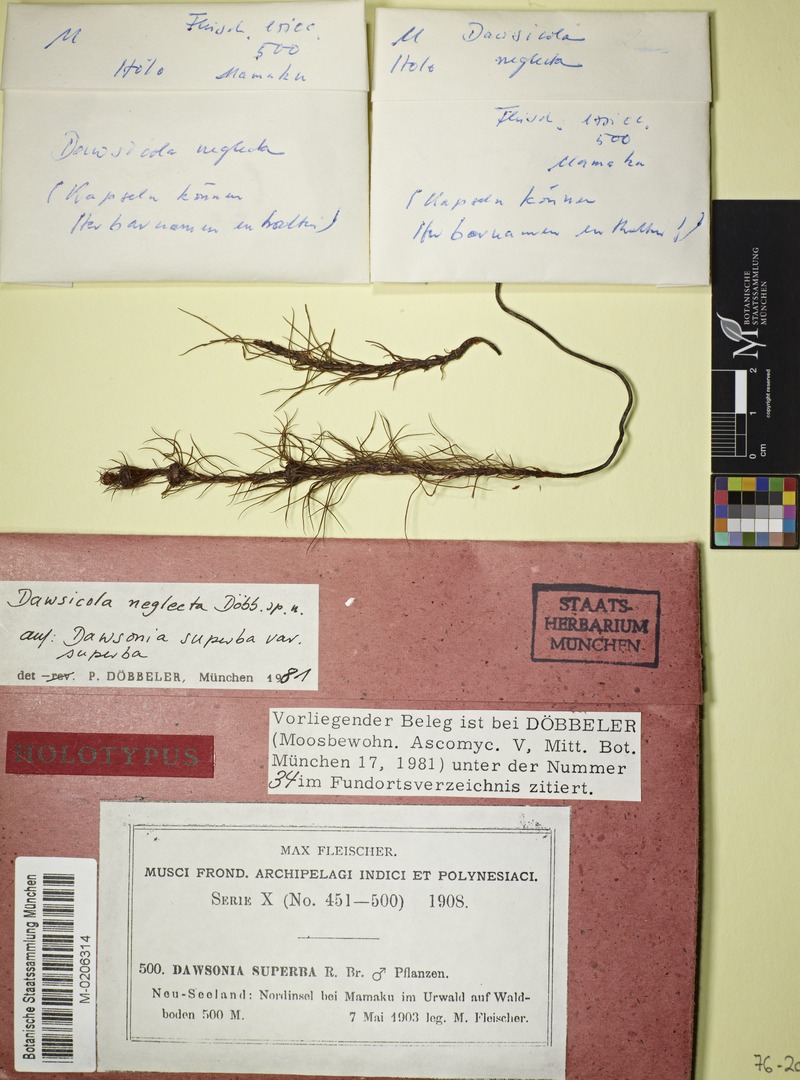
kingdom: Fungi
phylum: Ascomycota
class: Leotiomycetes
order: Helotiales
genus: Dawsicola
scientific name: Dawsicola neglecta
